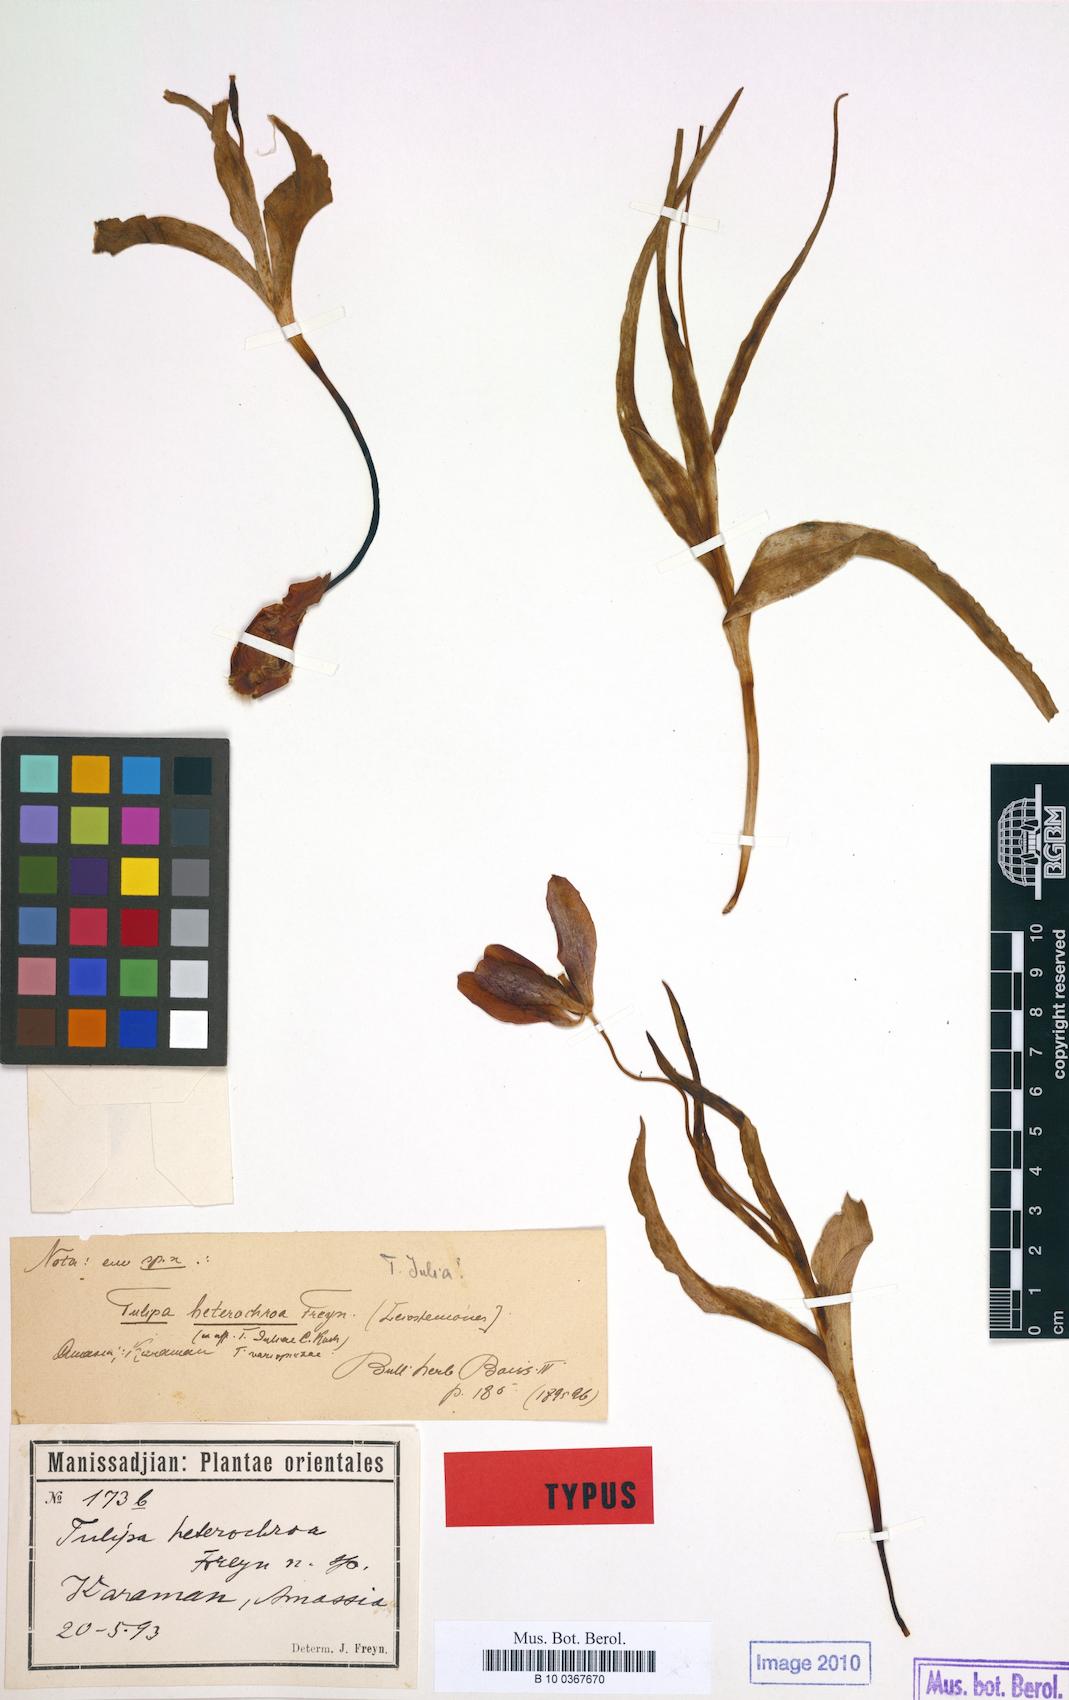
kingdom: Plantae
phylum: Tracheophyta
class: Liliopsida
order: Liliales
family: Liliaceae
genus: Tulipa
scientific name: Tulipa foliosa
